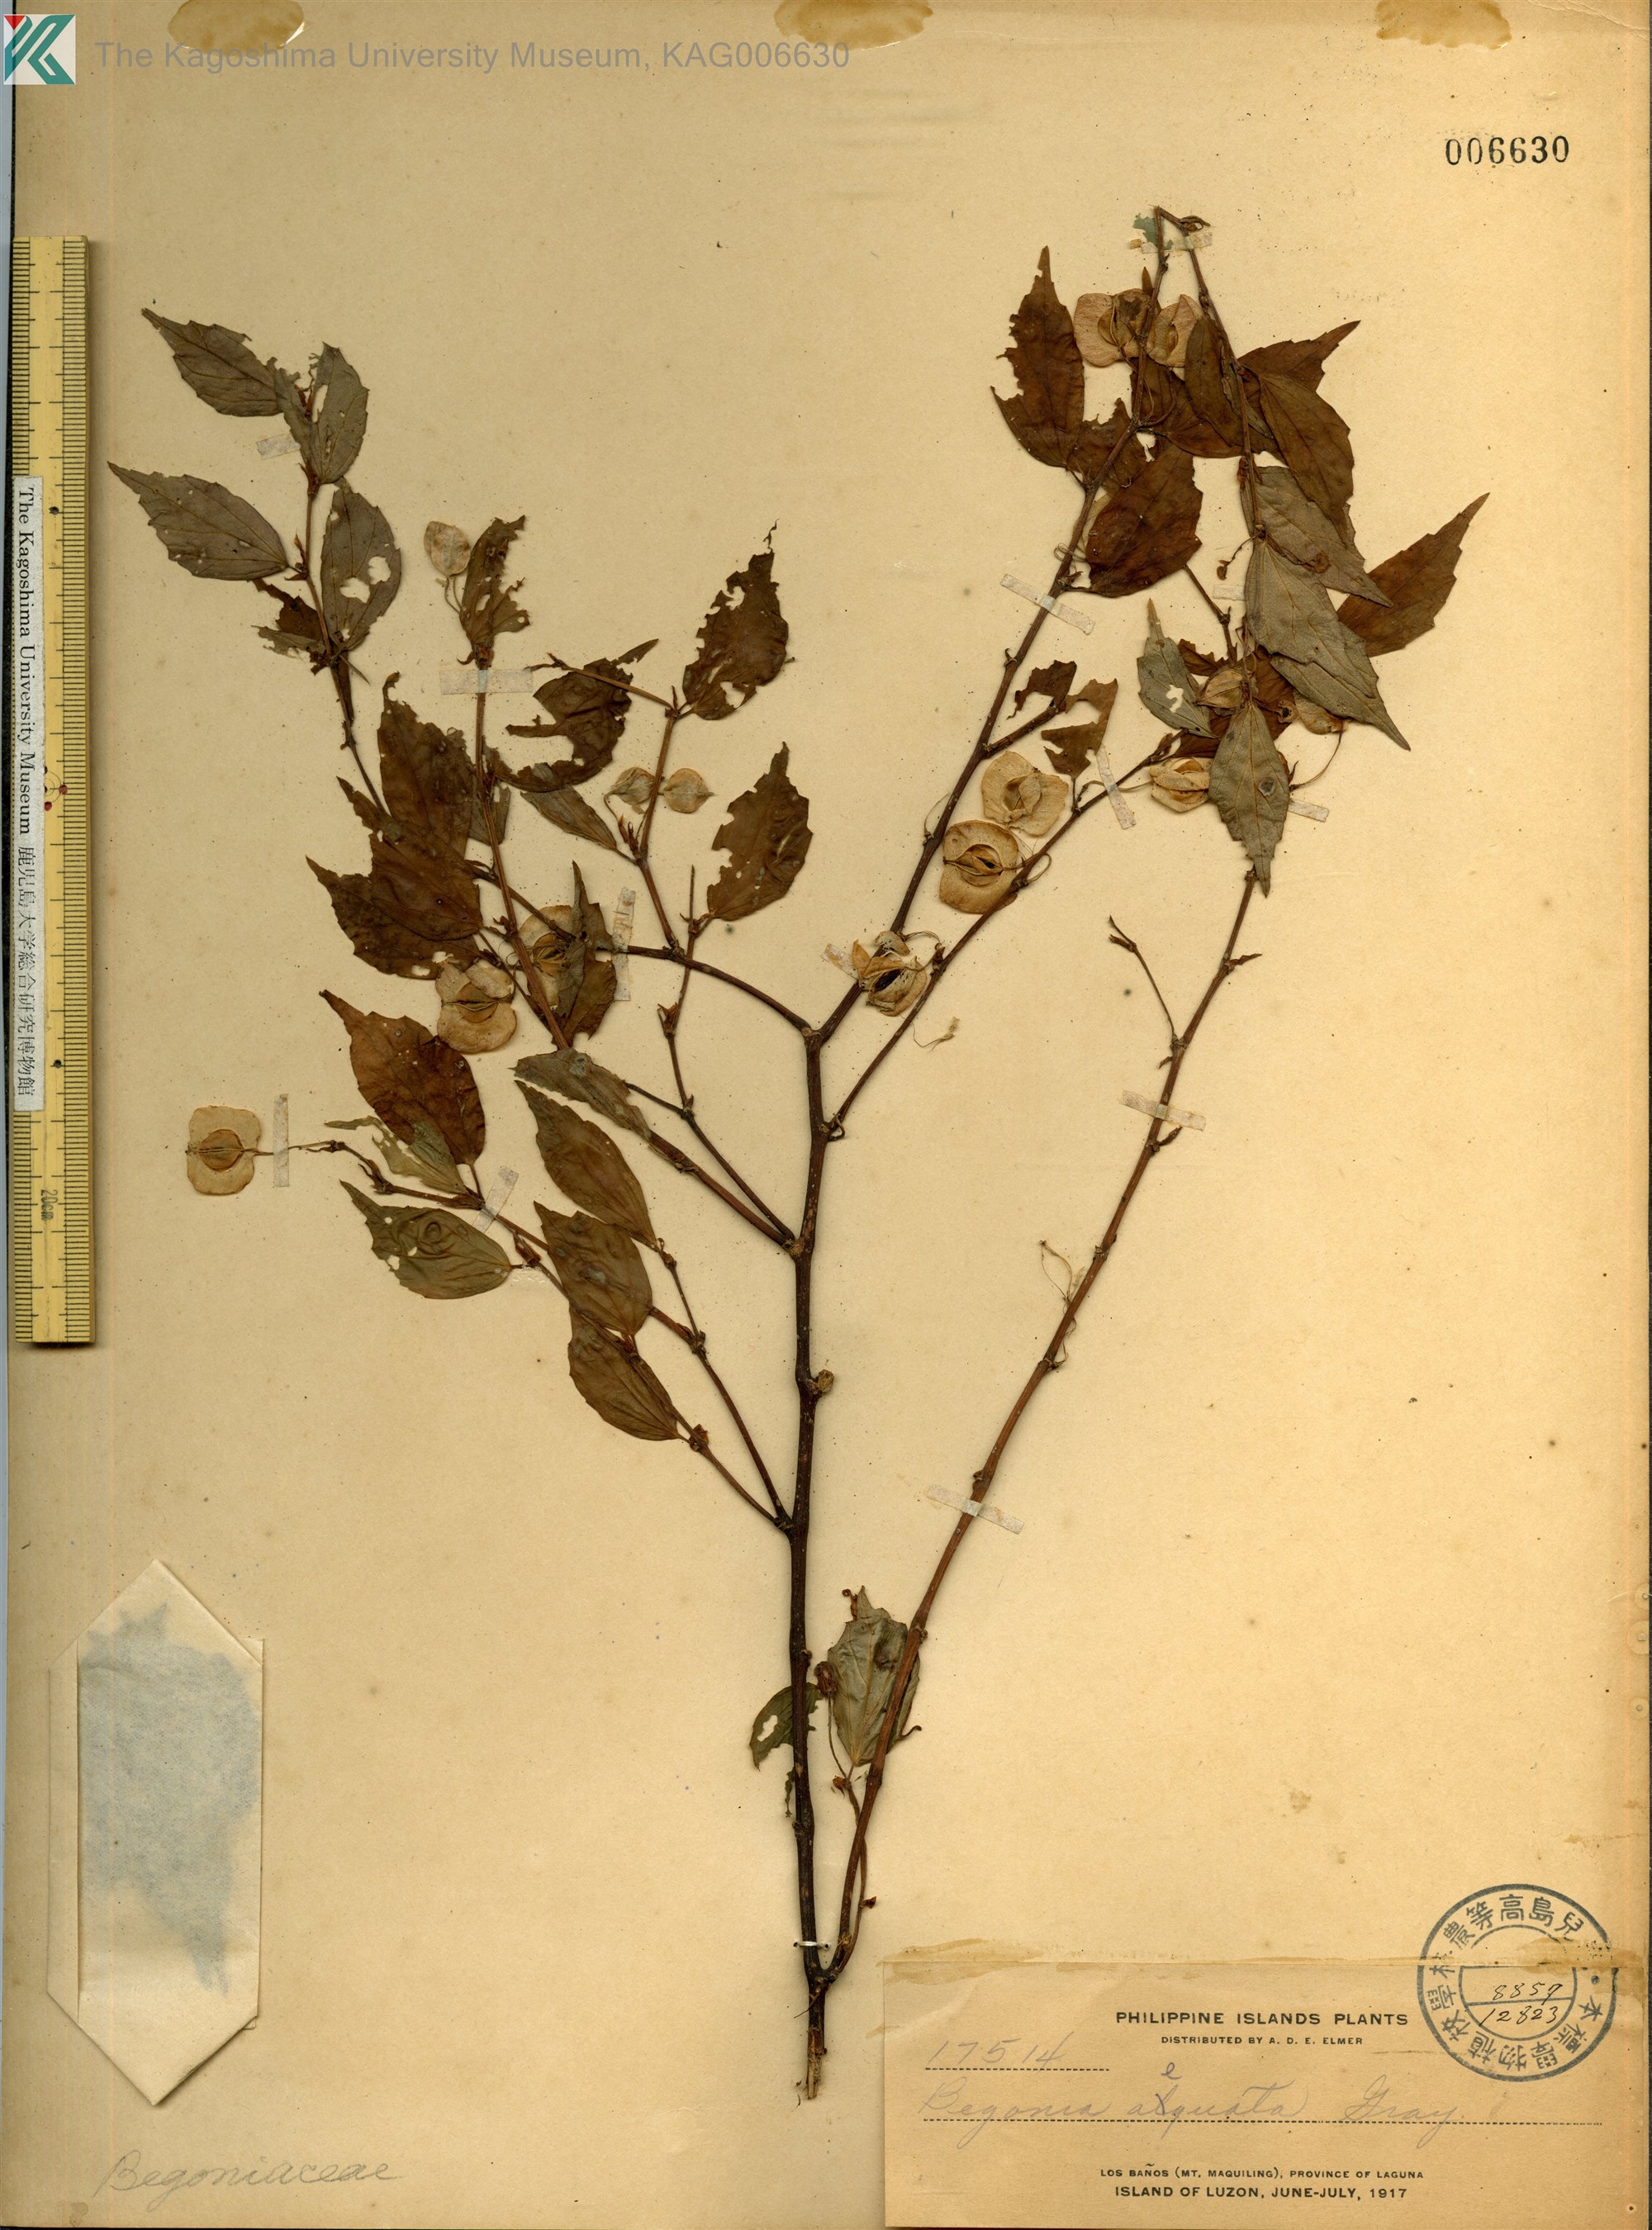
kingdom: Plantae
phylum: Tracheophyta
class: Magnoliopsida
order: Cucurbitales
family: Begoniaceae
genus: Begonia
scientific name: Begonia aequata
